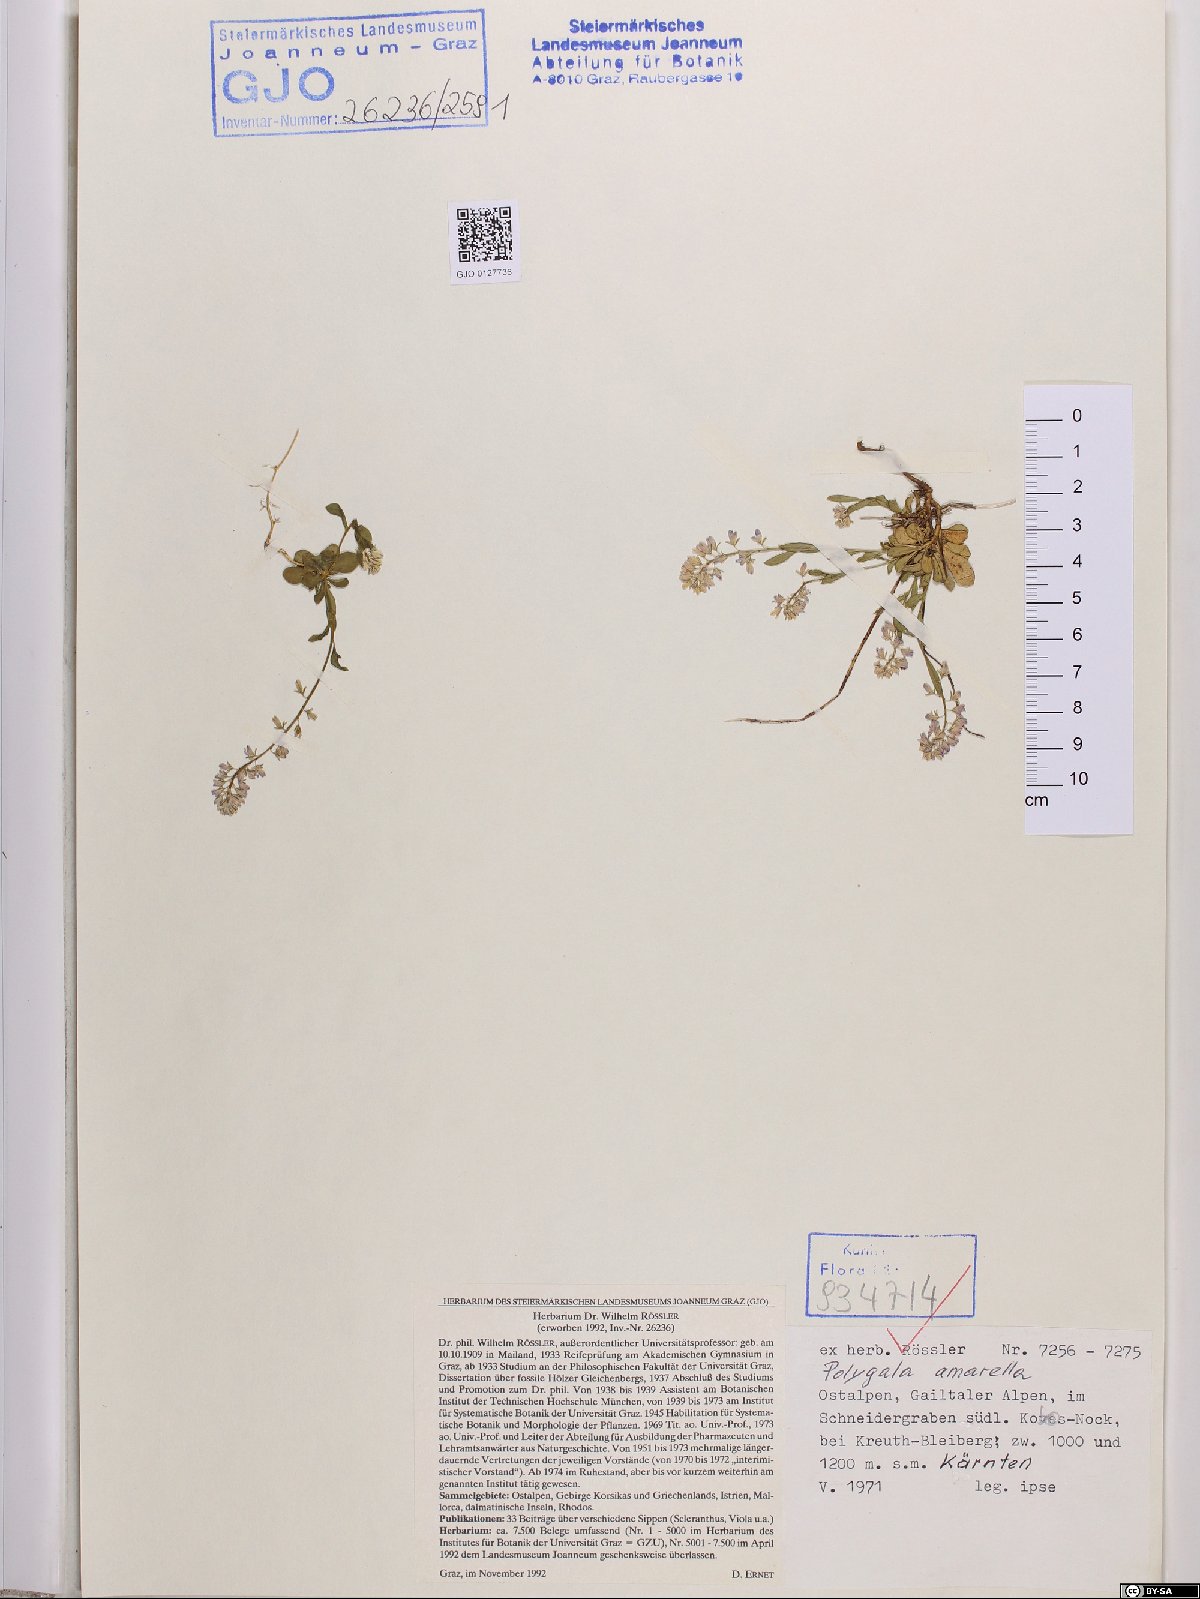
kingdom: Plantae
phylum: Tracheophyta
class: Magnoliopsida
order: Fabales
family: Polygalaceae
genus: Polygala
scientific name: Polygala amarella
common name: Dwarf milkwort
